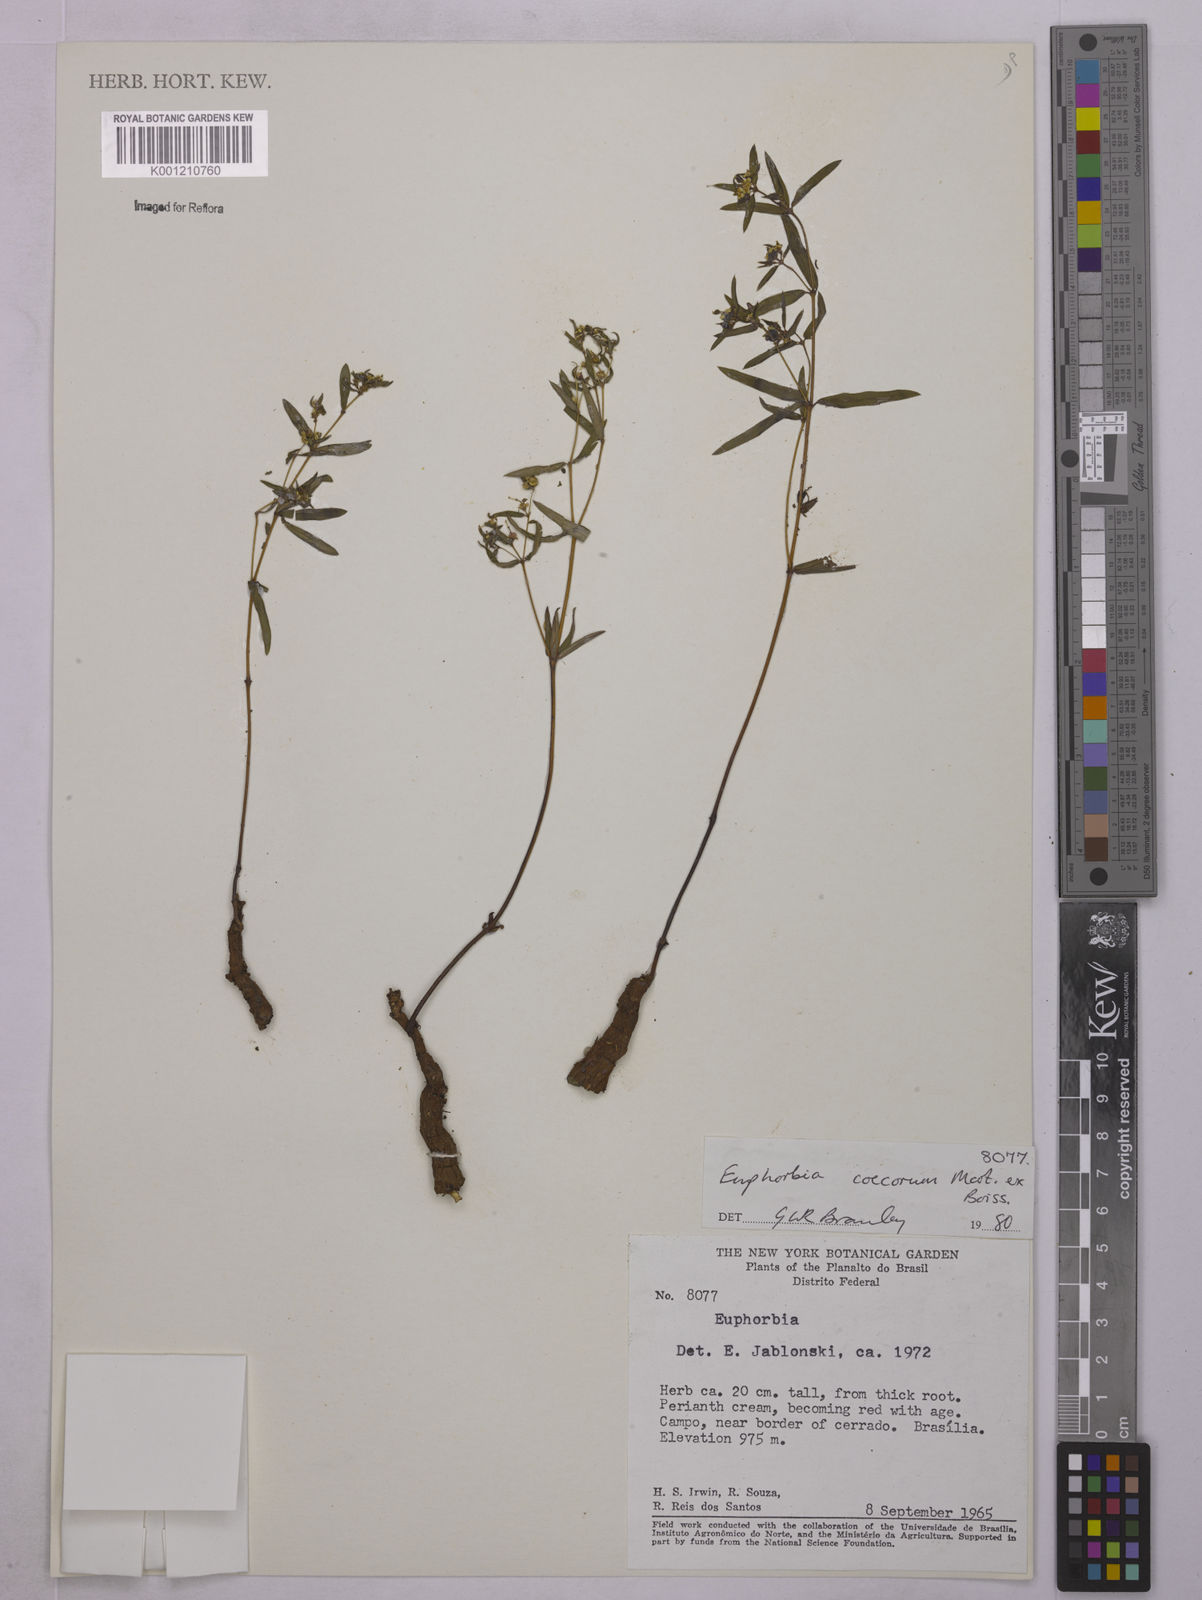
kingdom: Plantae
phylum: Tracheophyta
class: Magnoliopsida
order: Malpighiales
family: Euphorbiaceae
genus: Euphorbia
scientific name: Euphorbia potentilloides
